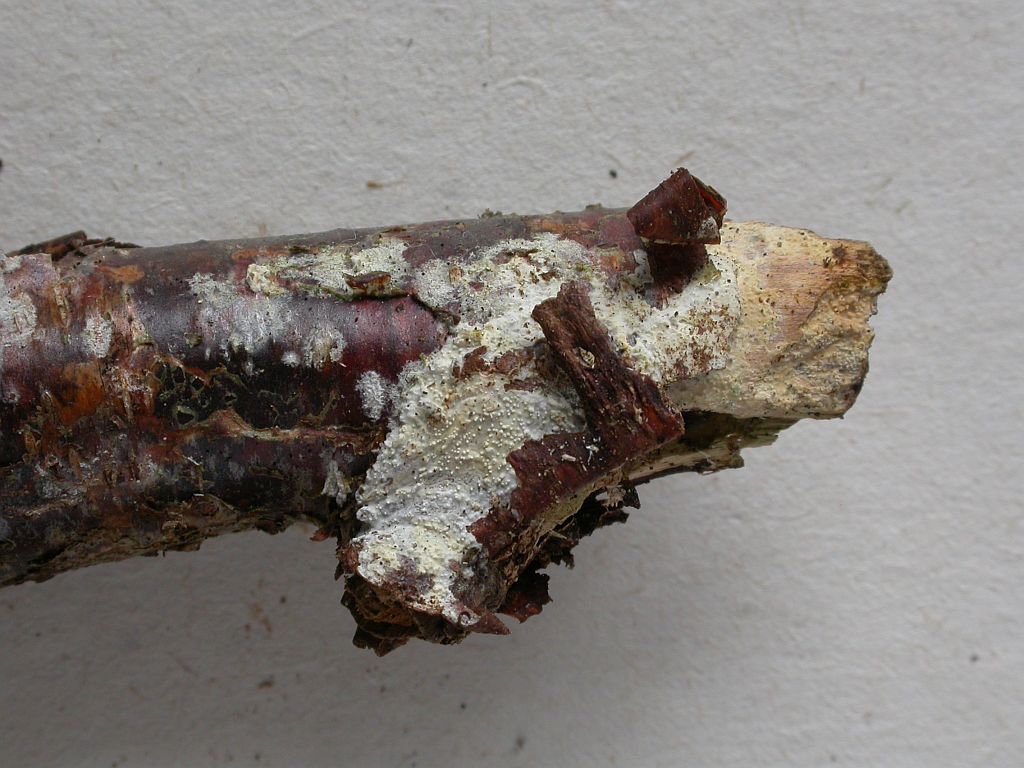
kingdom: Fungi
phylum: Basidiomycota
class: Agaricomycetes
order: Corticiales
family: Corticiaceae
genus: Lyomyces
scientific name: Lyomyces crustosus
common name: vortet hyldehinde
